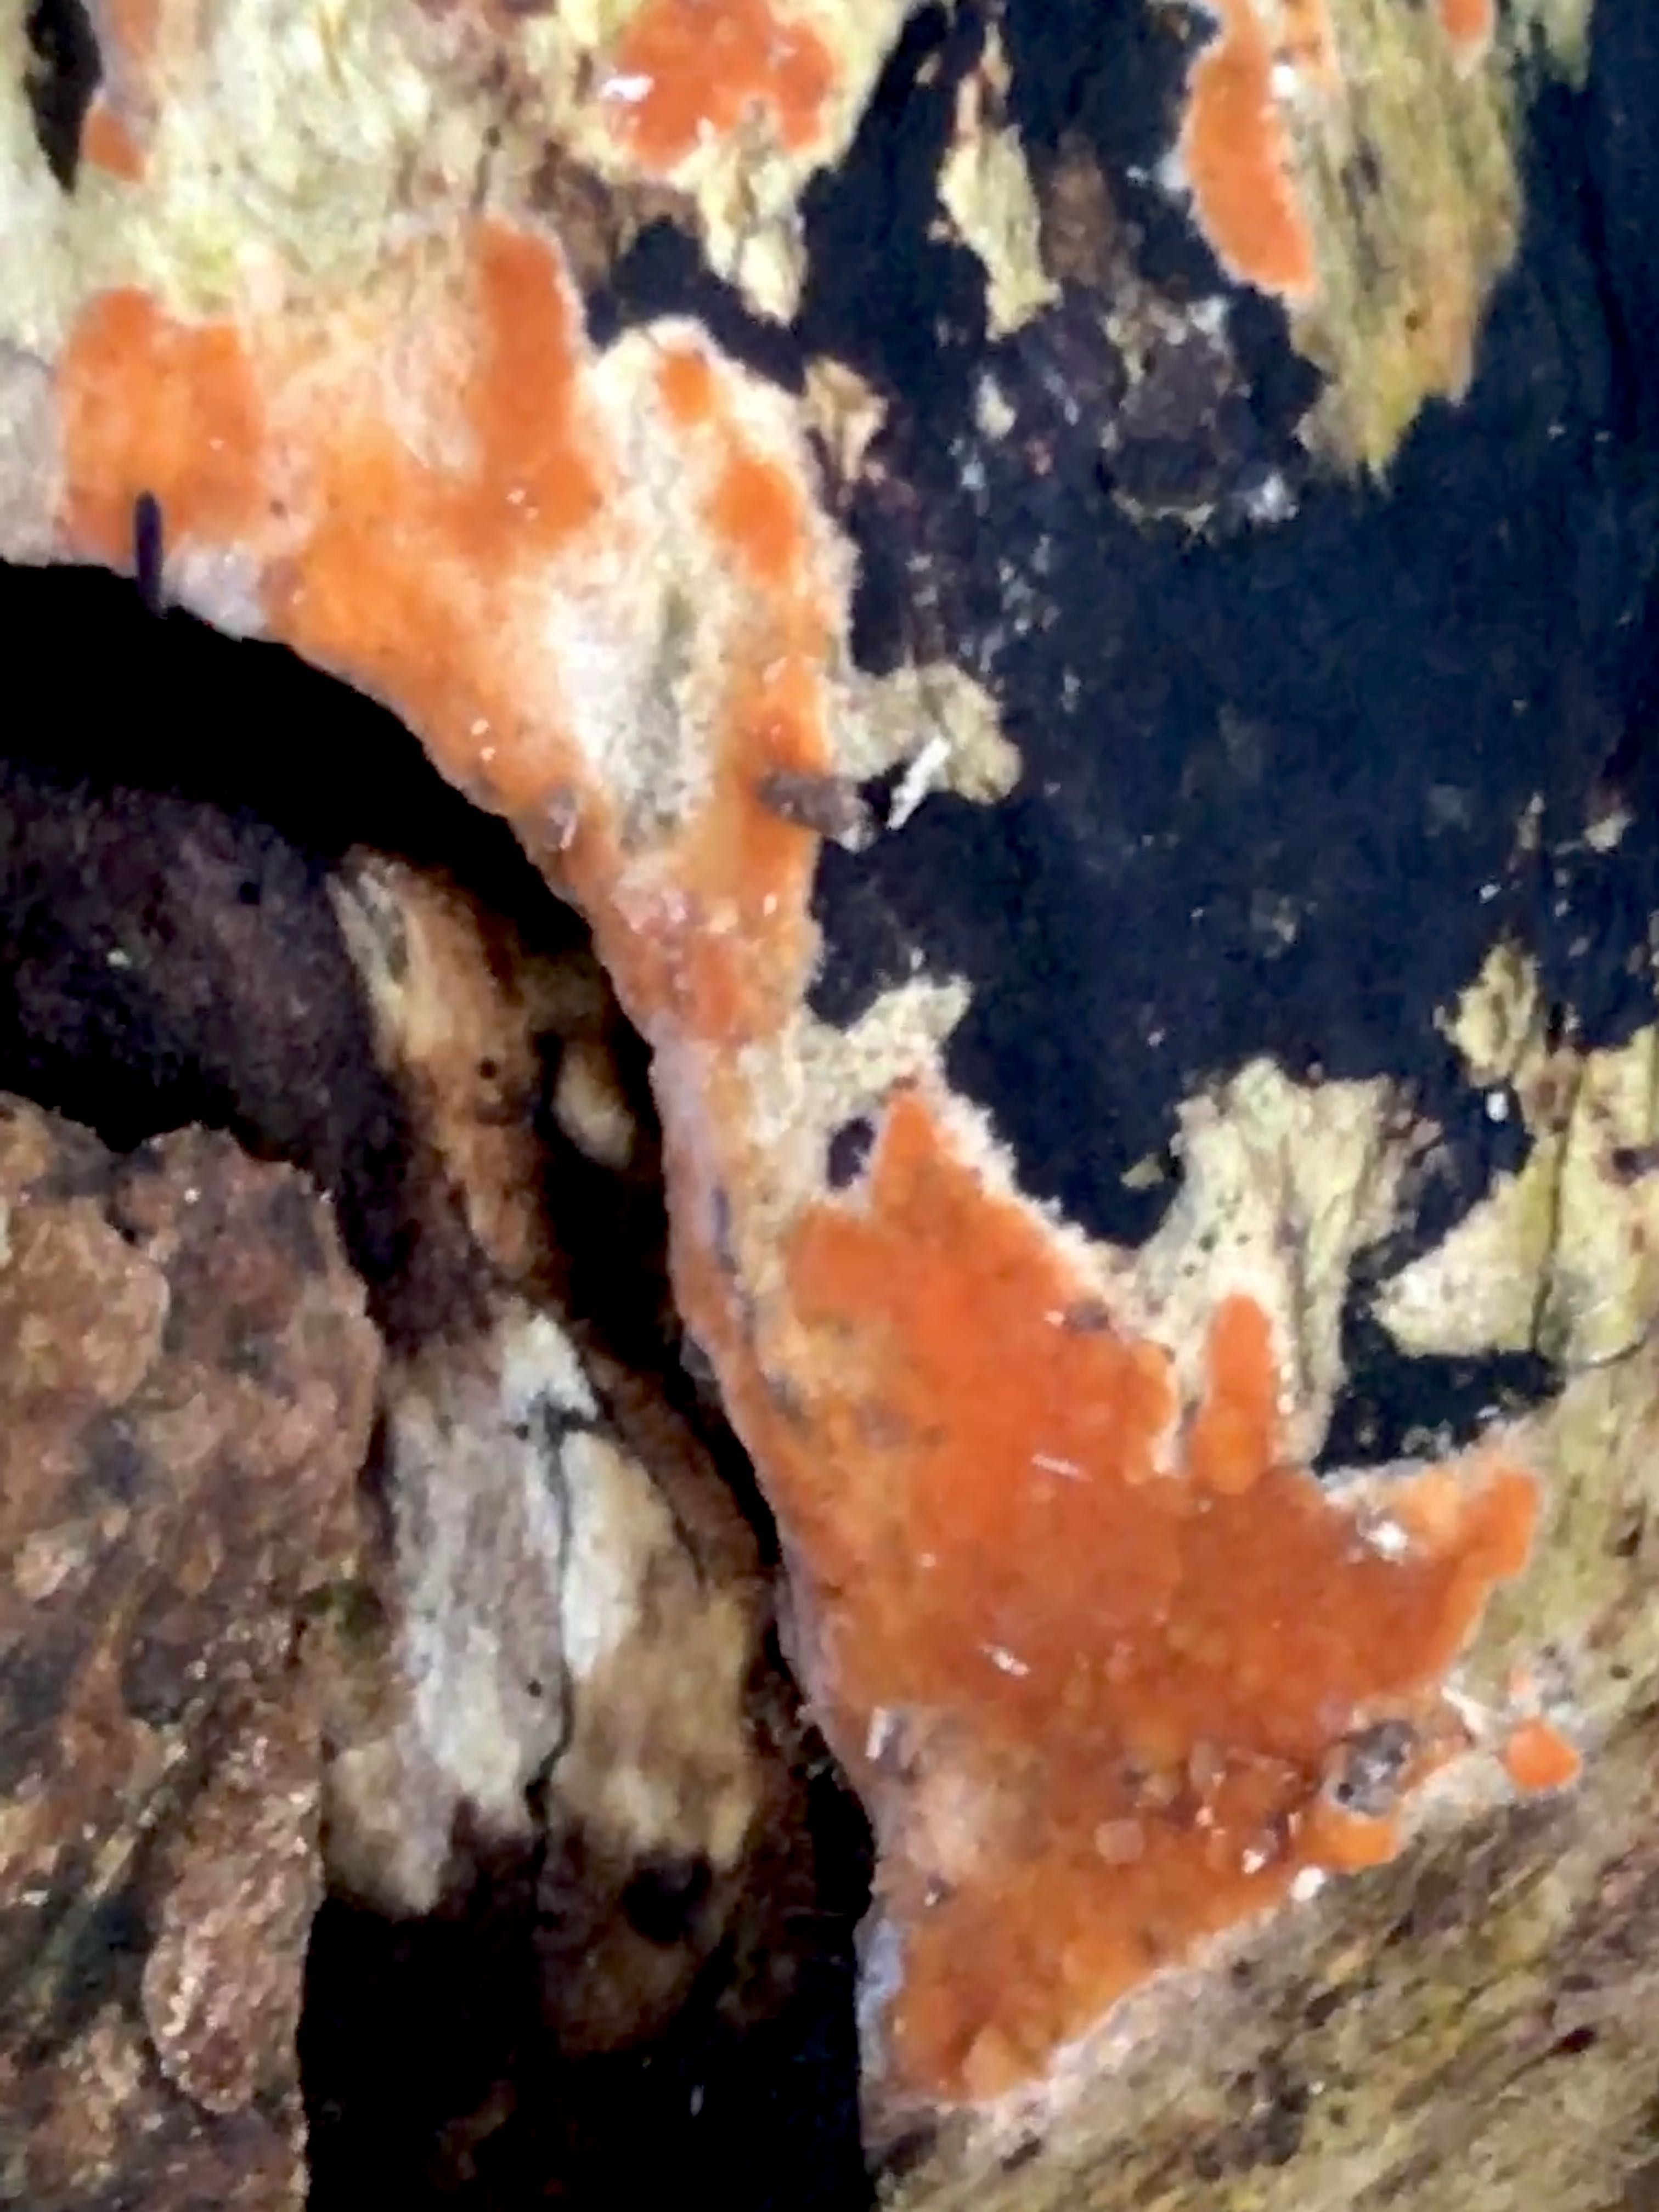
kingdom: Fungi
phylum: Basidiomycota
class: Agaricomycetes
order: Russulales
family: Peniophoraceae
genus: Peniophora
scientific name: Peniophora incarnata
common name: laksefarvet voksskind
